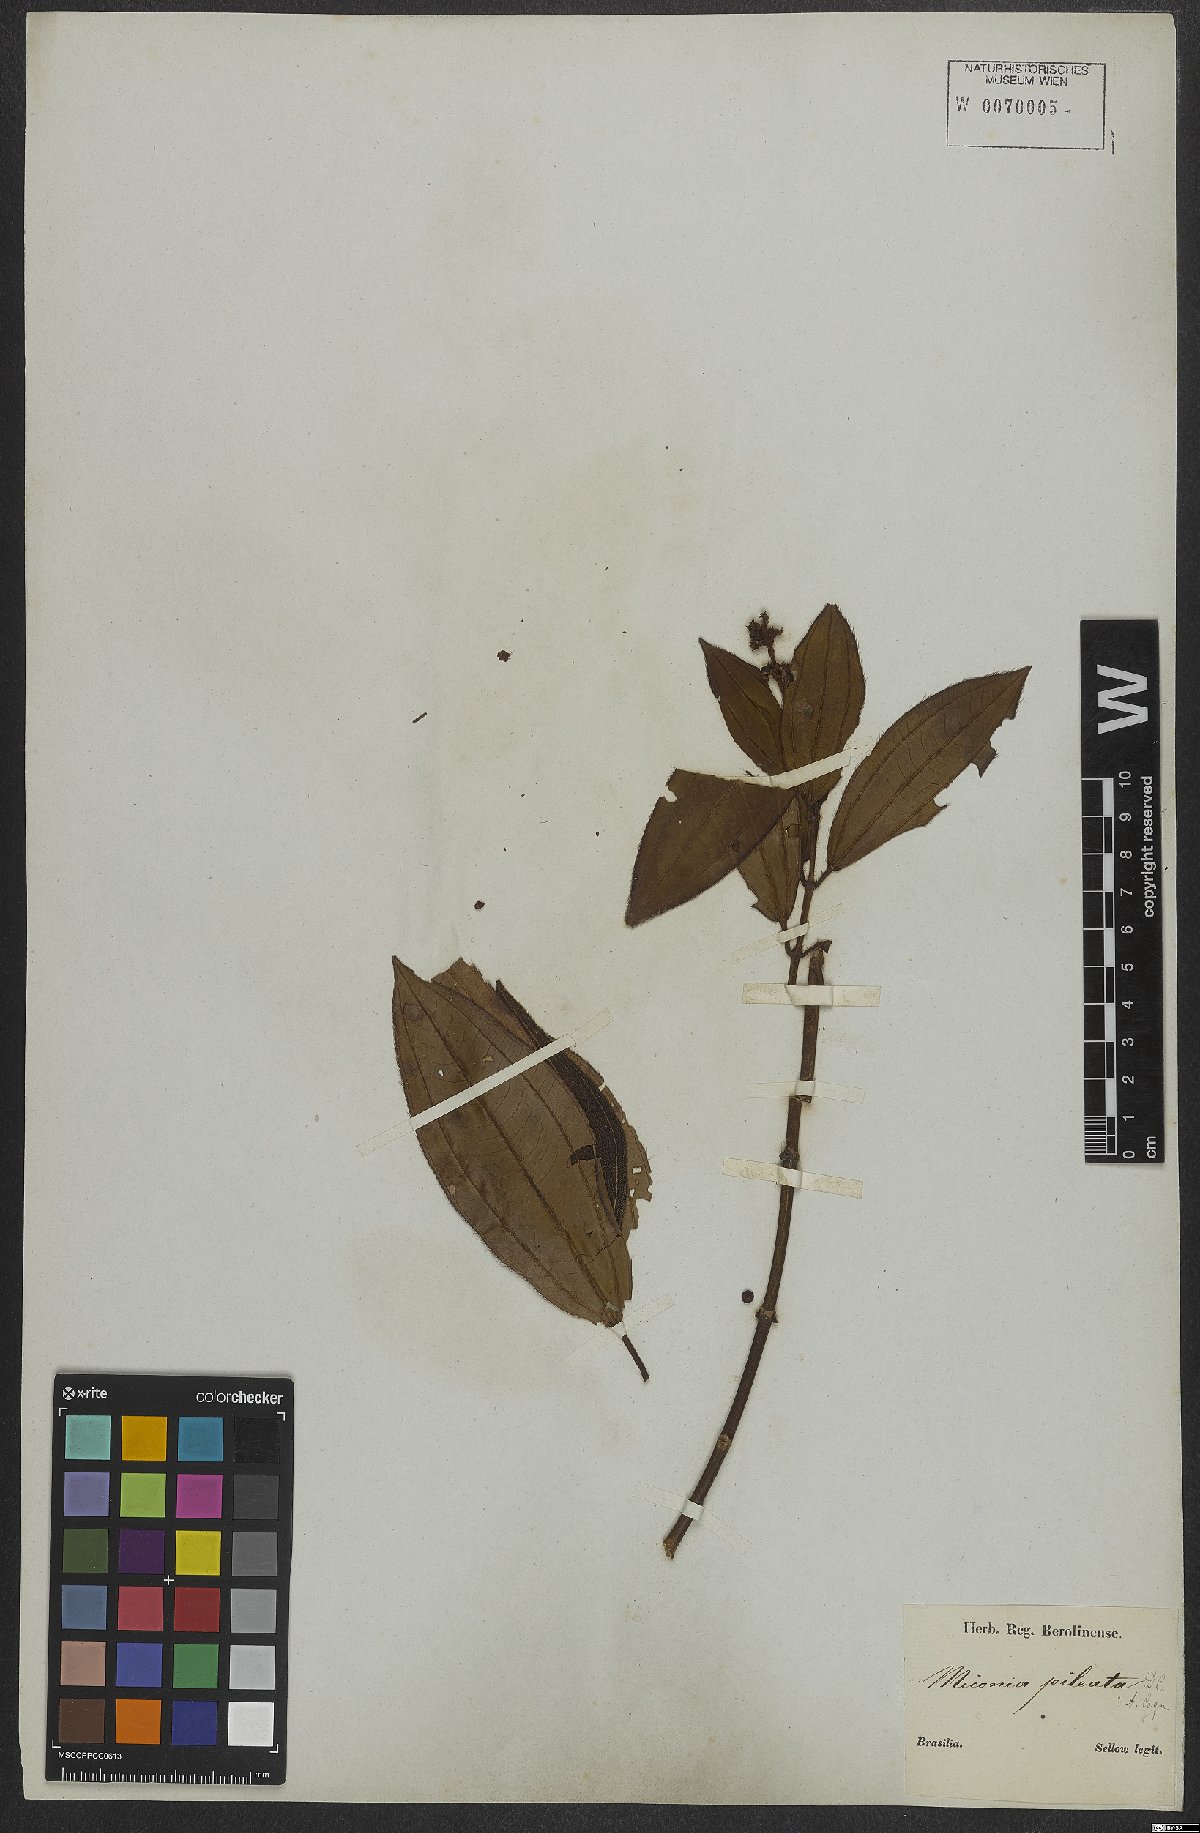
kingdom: Plantae
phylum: Tracheophyta
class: Magnoliopsida
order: Myrtales
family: Melastomataceae
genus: Miconia
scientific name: Miconia pileata
